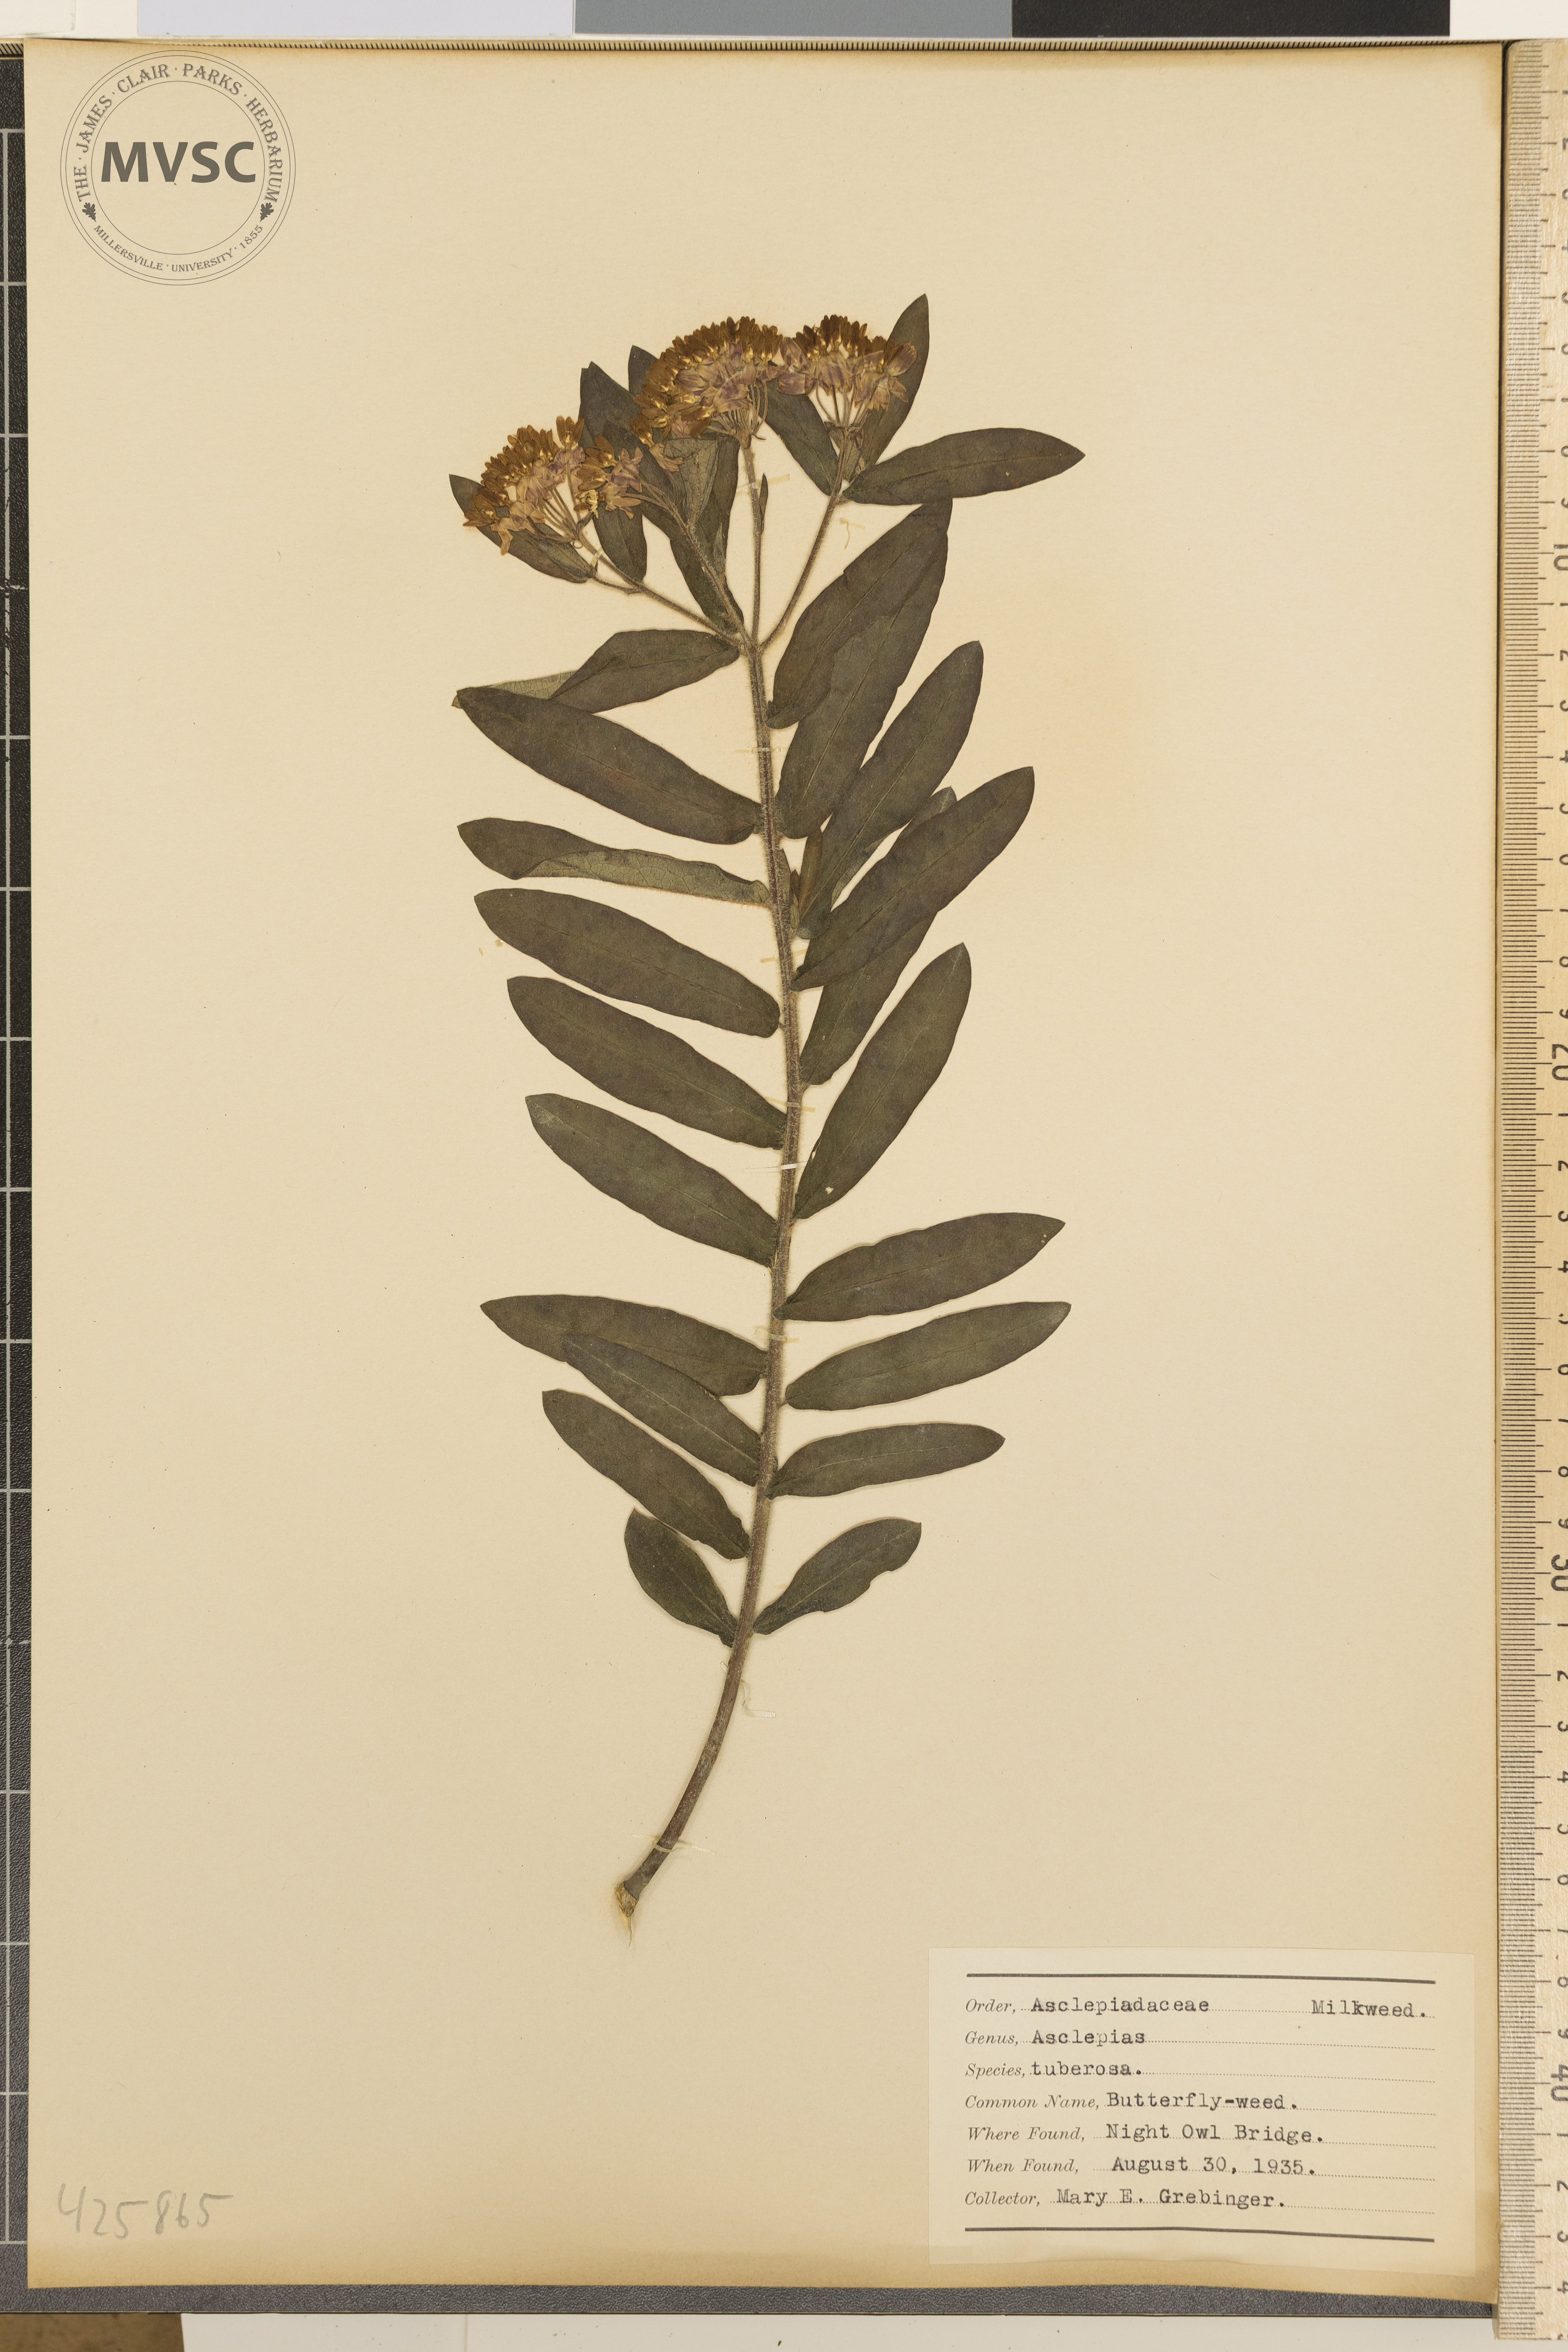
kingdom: Plantae
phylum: Tracheophyta
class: Magnoliopsida
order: Gentianales
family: Apocynaceae
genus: Asclepias
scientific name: Asclepias tuberosa
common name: Butterfly-weed
